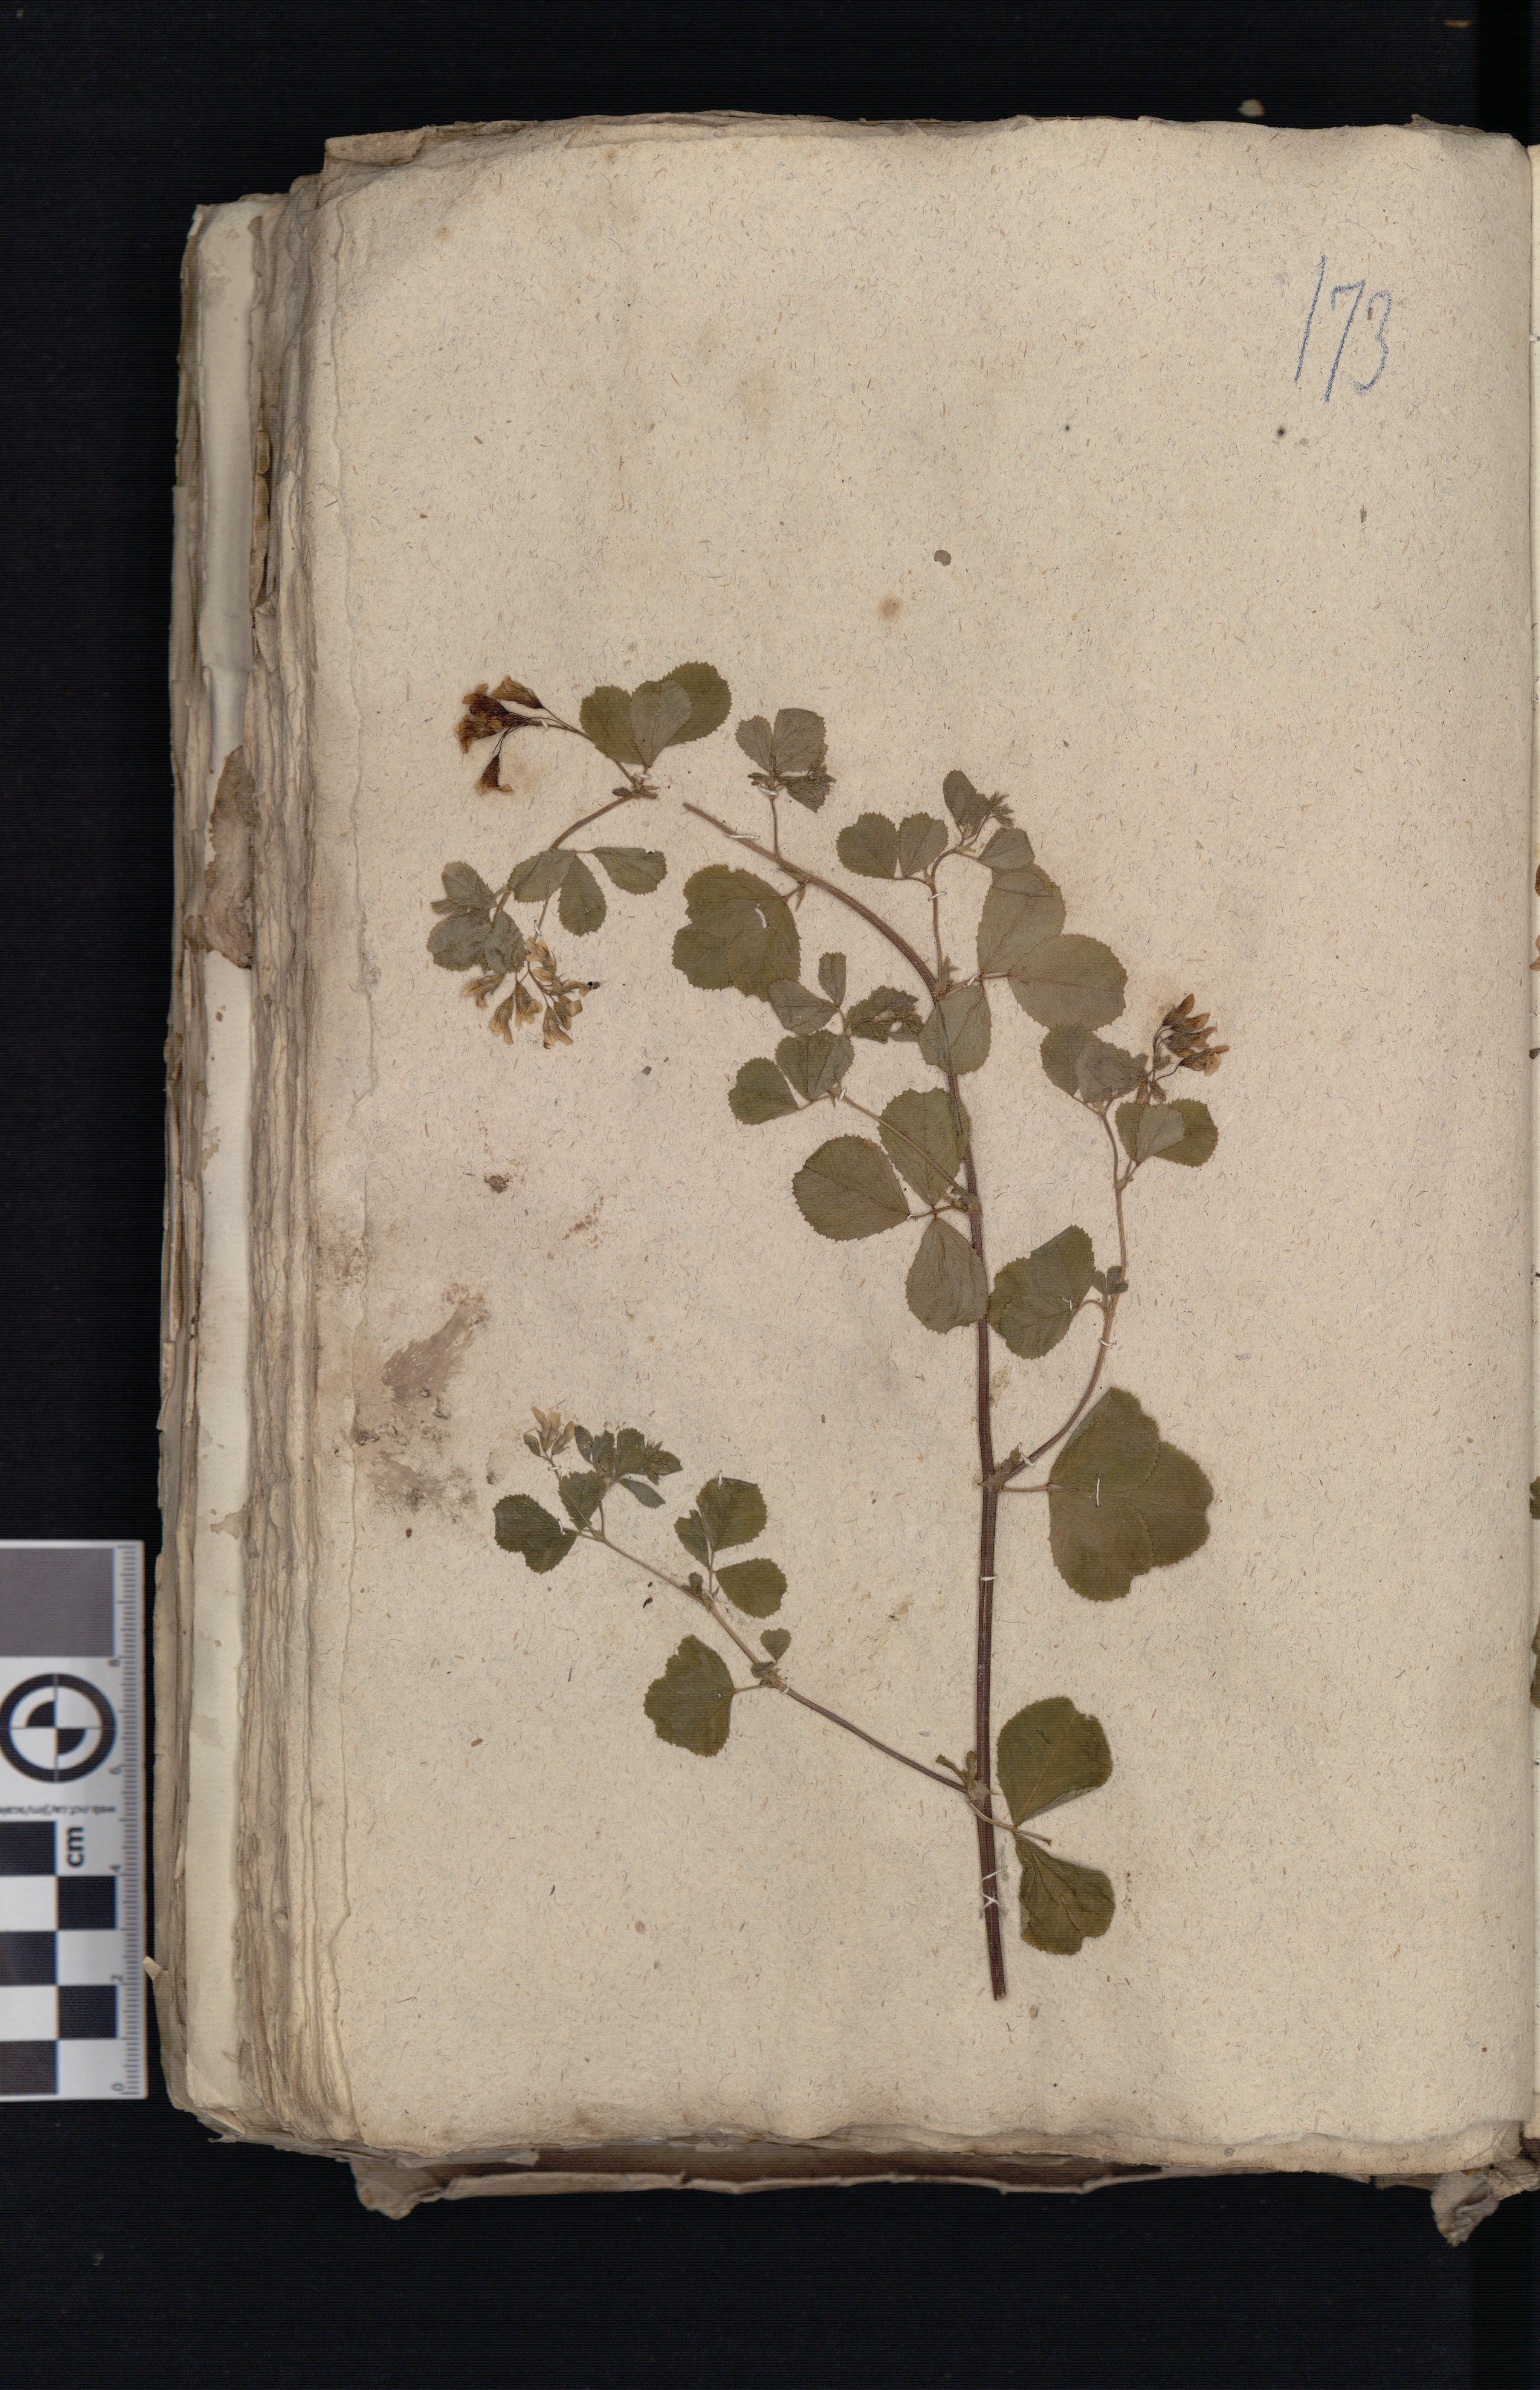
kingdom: Plantae
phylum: Tracheophyta
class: Magnoliopsida
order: Fabales
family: Fabaceae
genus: Medicago
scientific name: Medicago polymorpha
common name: Burclover
